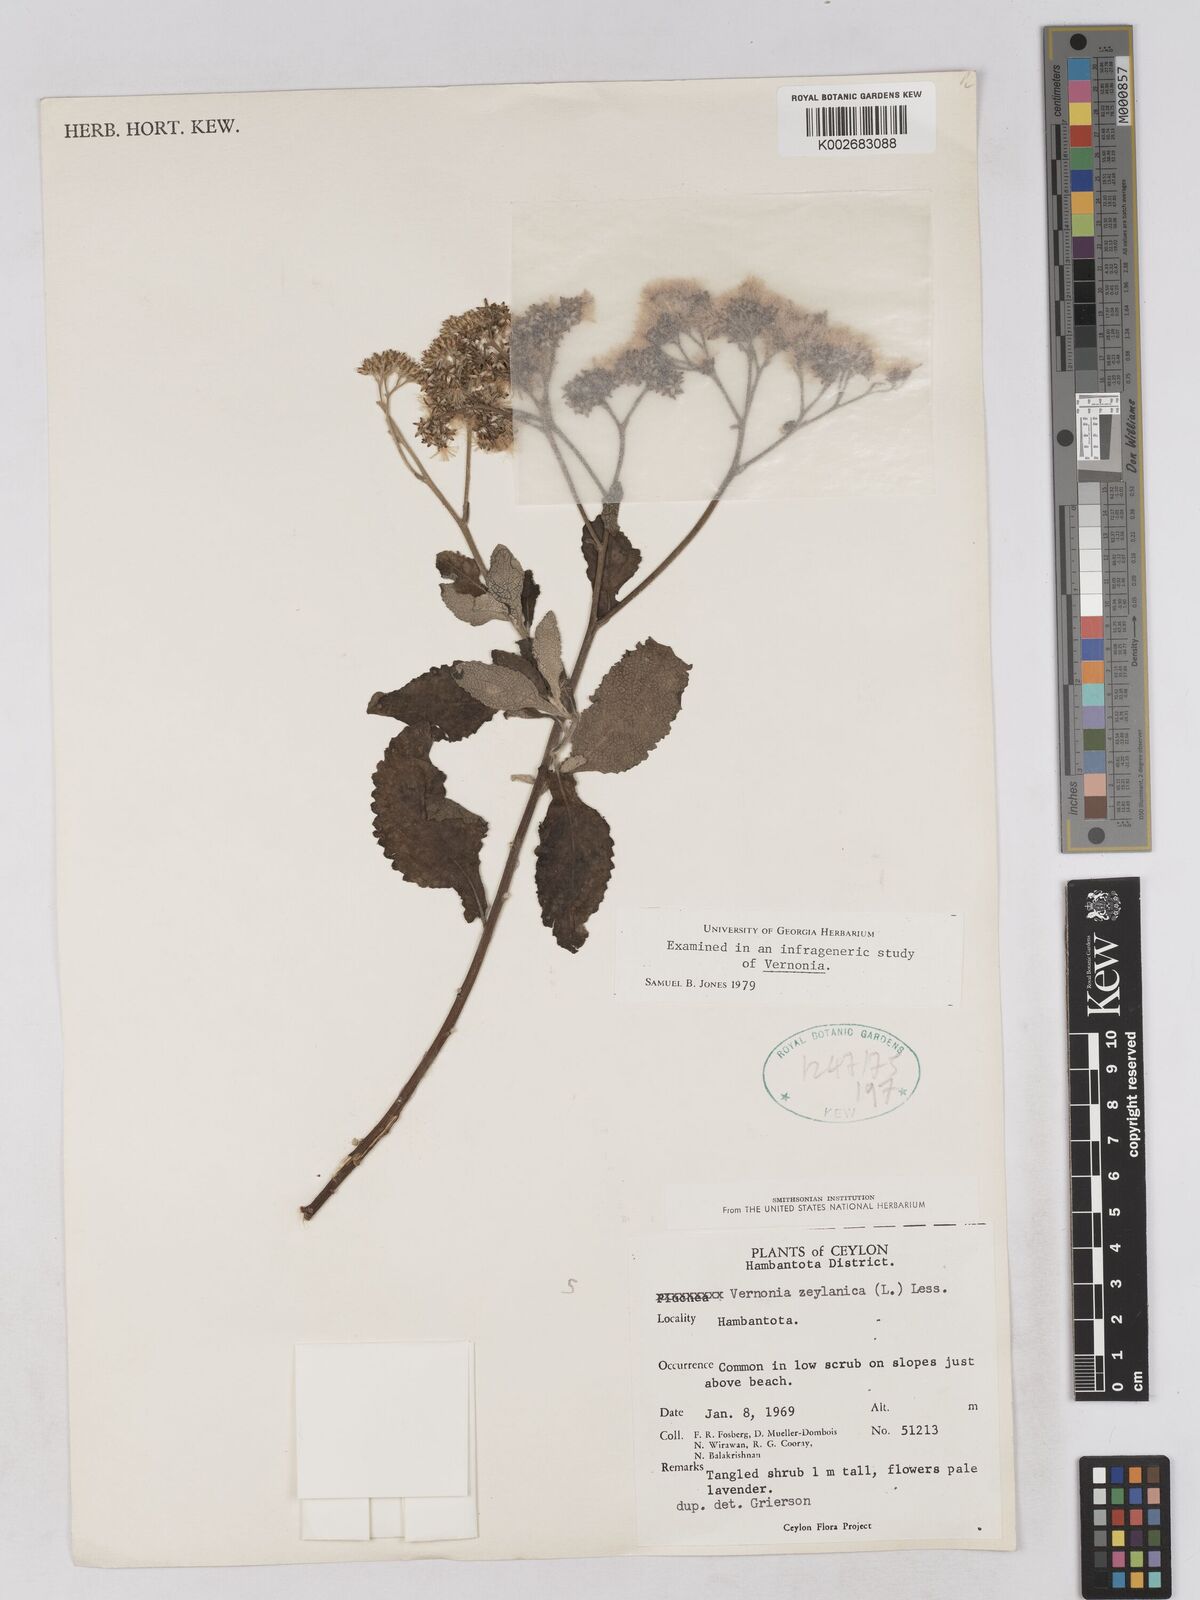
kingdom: Plantae
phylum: Tracheophyta
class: Magnoliopsida
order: Asterales
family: Asteraceae
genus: Jeffreycia
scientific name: Jeffreycia zeylanica
